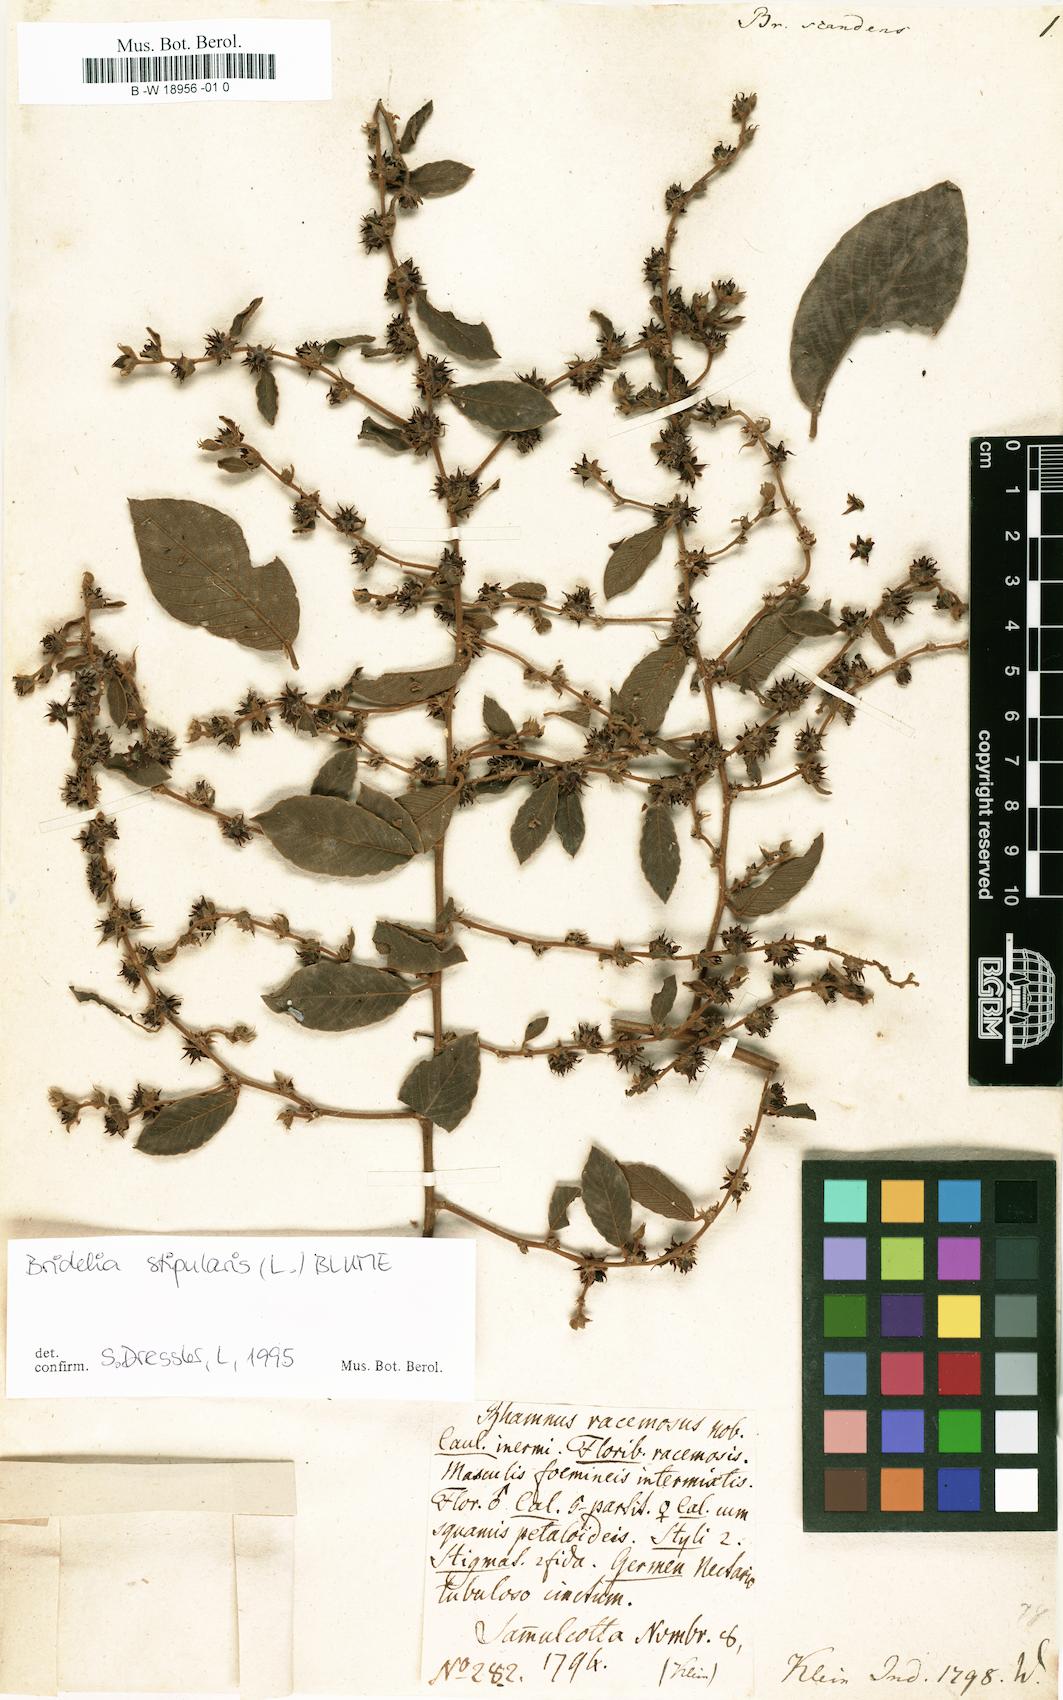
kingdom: Plantae
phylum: Tracheophyta
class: Magnoliopsida
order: Malpighiales
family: Euphorbiaceae
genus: Briedelia
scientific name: Briedelia
